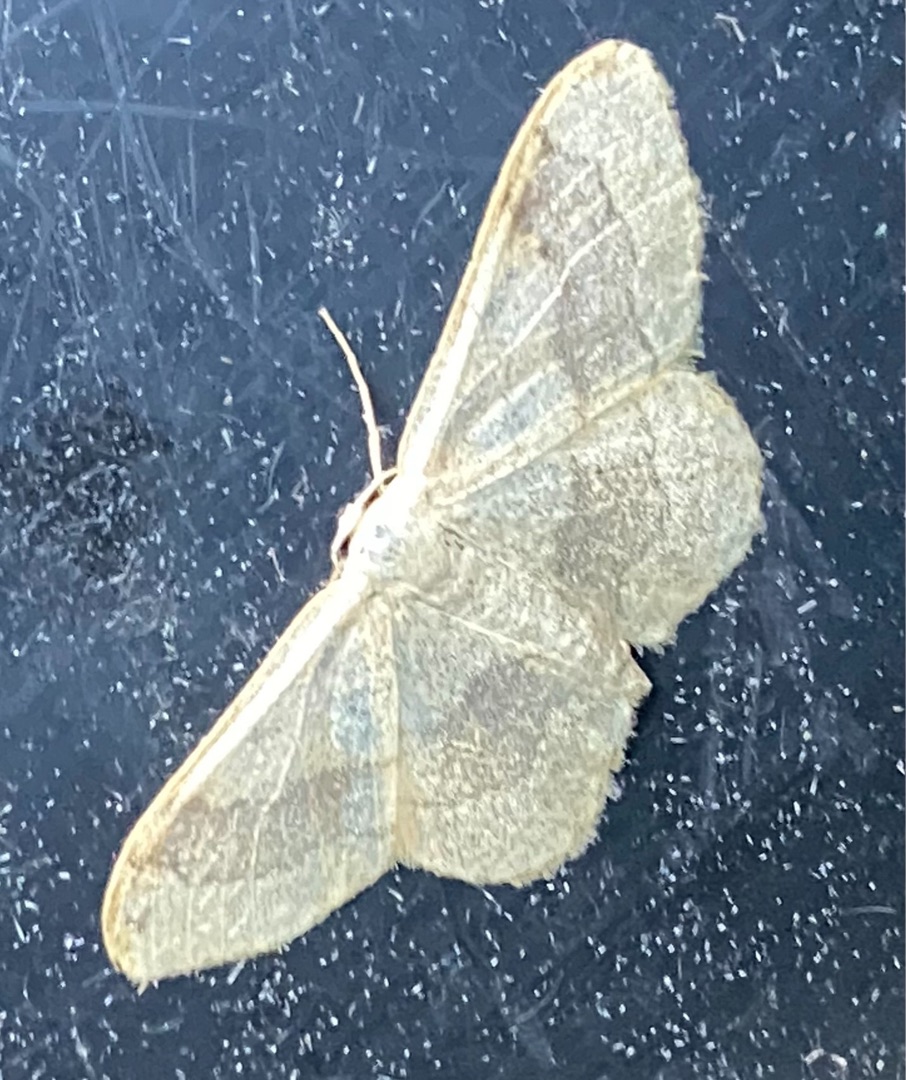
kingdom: Animalia
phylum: Arthropoda
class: Insecta
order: Lepidoptera
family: Geometridae
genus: Idaea
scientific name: Idaea aversata
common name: Vinkelstreget løvmåler
